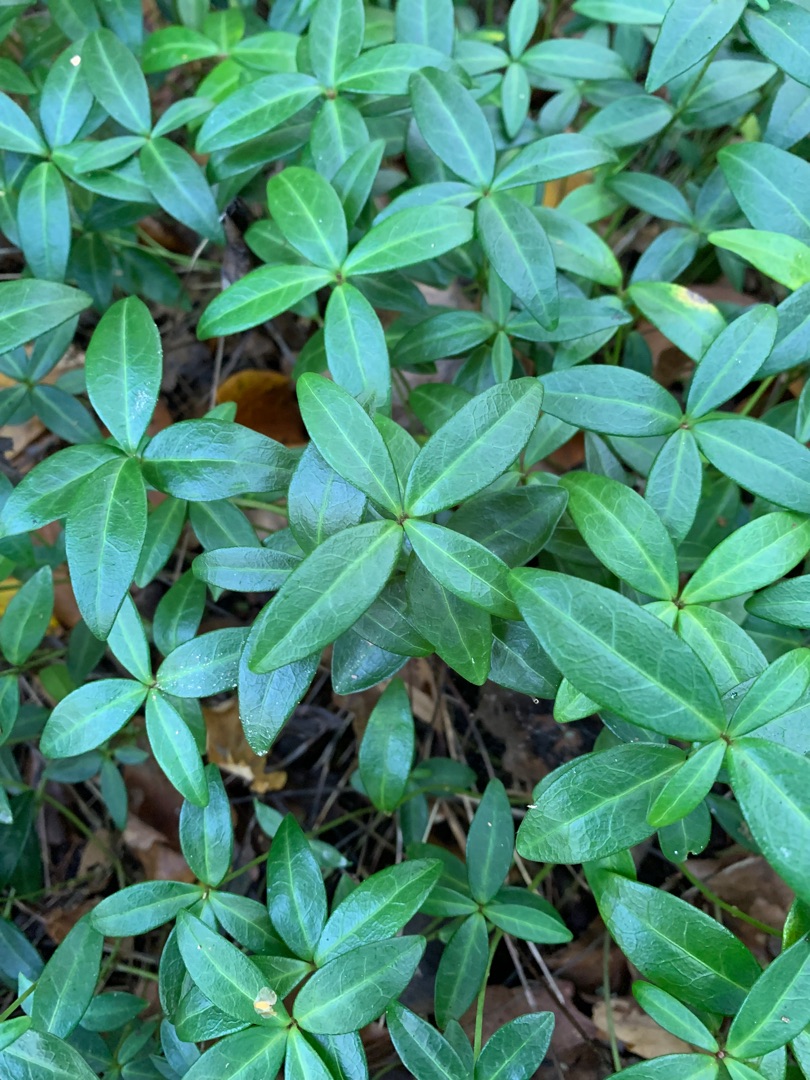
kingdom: Plantae
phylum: Tracheophyta
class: Magnoliopsida
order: Gentianales
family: Apocynaceae
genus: Vinca
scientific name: Vinca minor
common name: Liden singrøn
